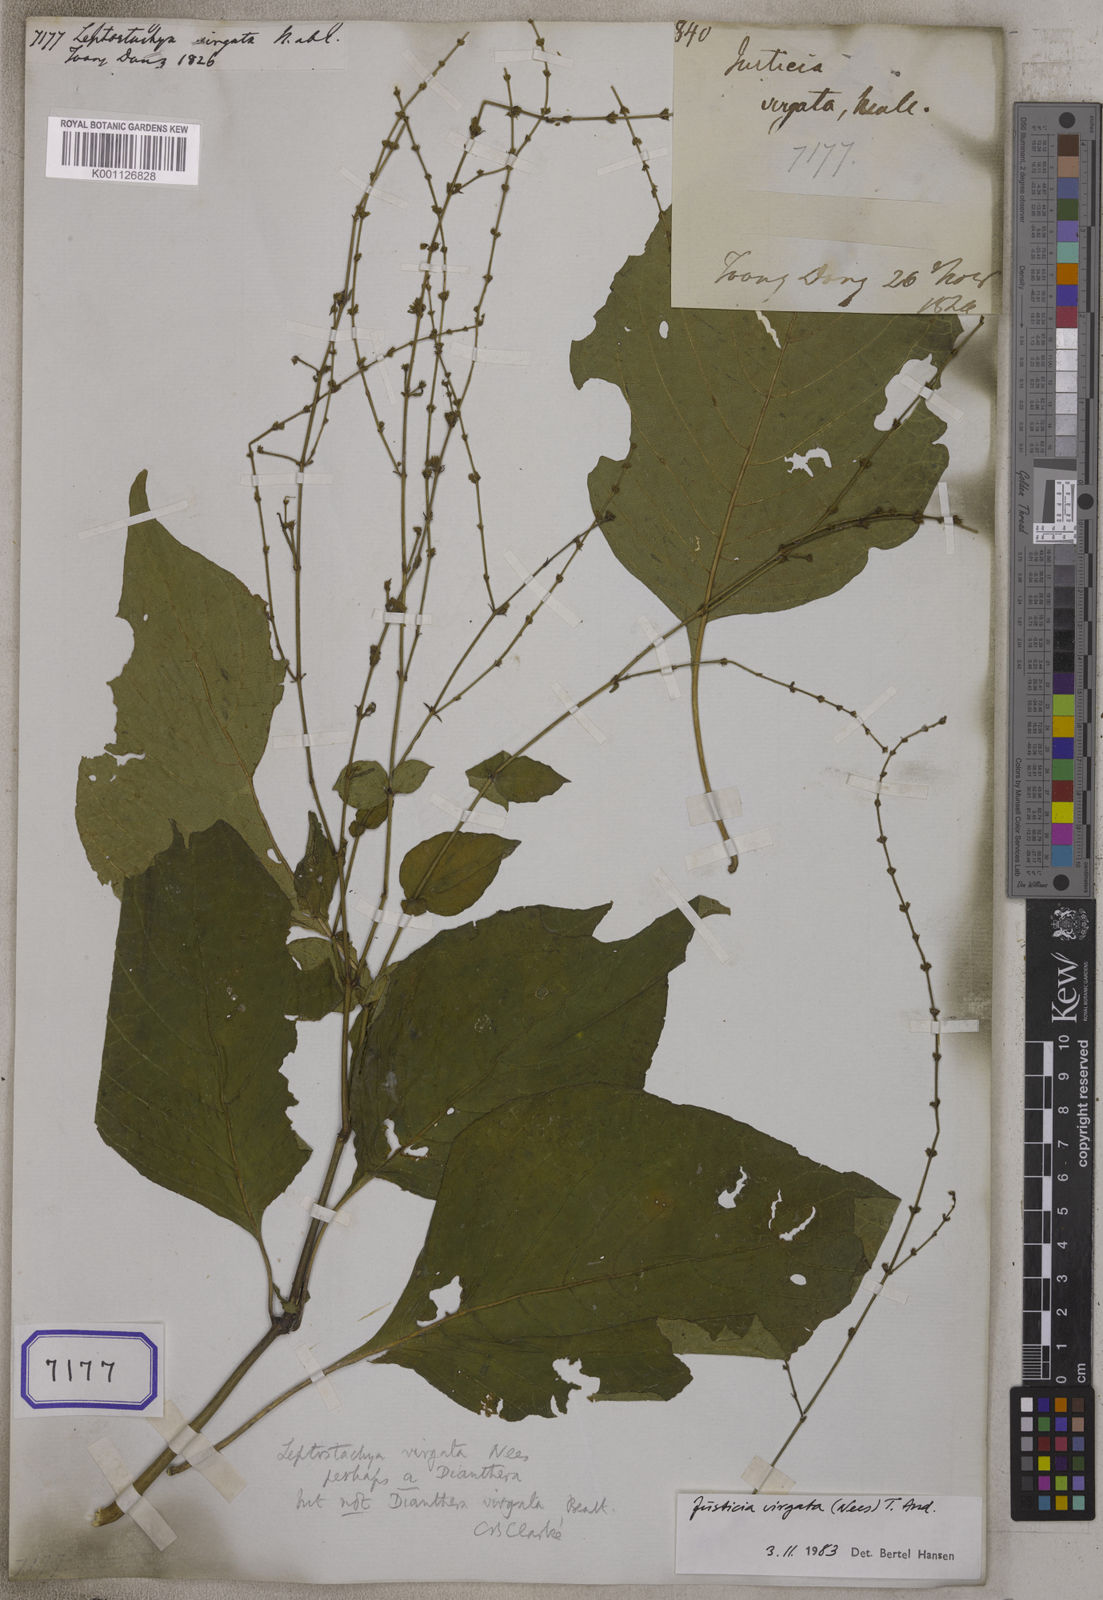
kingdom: Plantae
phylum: Tracheophyta
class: Magnoliopsida
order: Lamiales
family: Acanthaceae
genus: Justicia
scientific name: Justicia virgata
